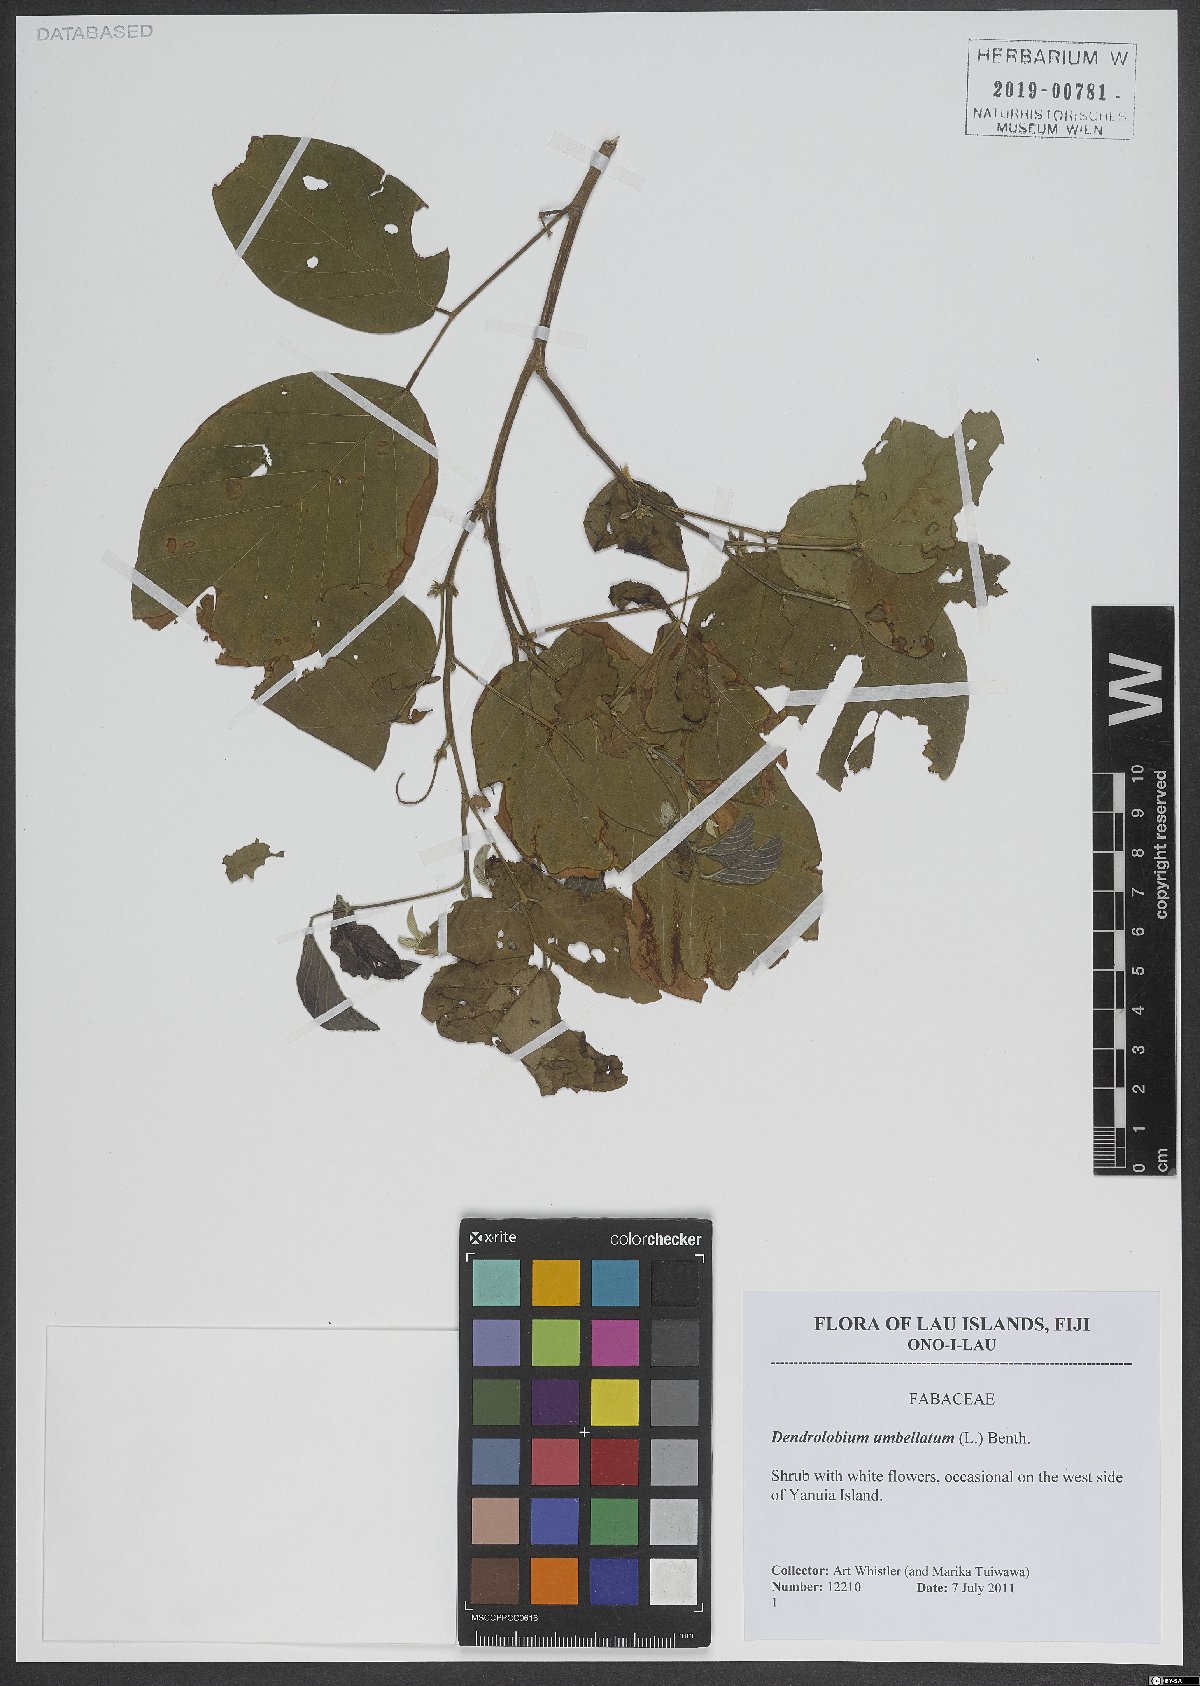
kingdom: Plantae
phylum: Tracheophyta
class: Magnoliopsida
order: Fabales
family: Fabaceae
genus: Dendrolobium
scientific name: Dendrolobium umbellatum
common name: Horsebush
